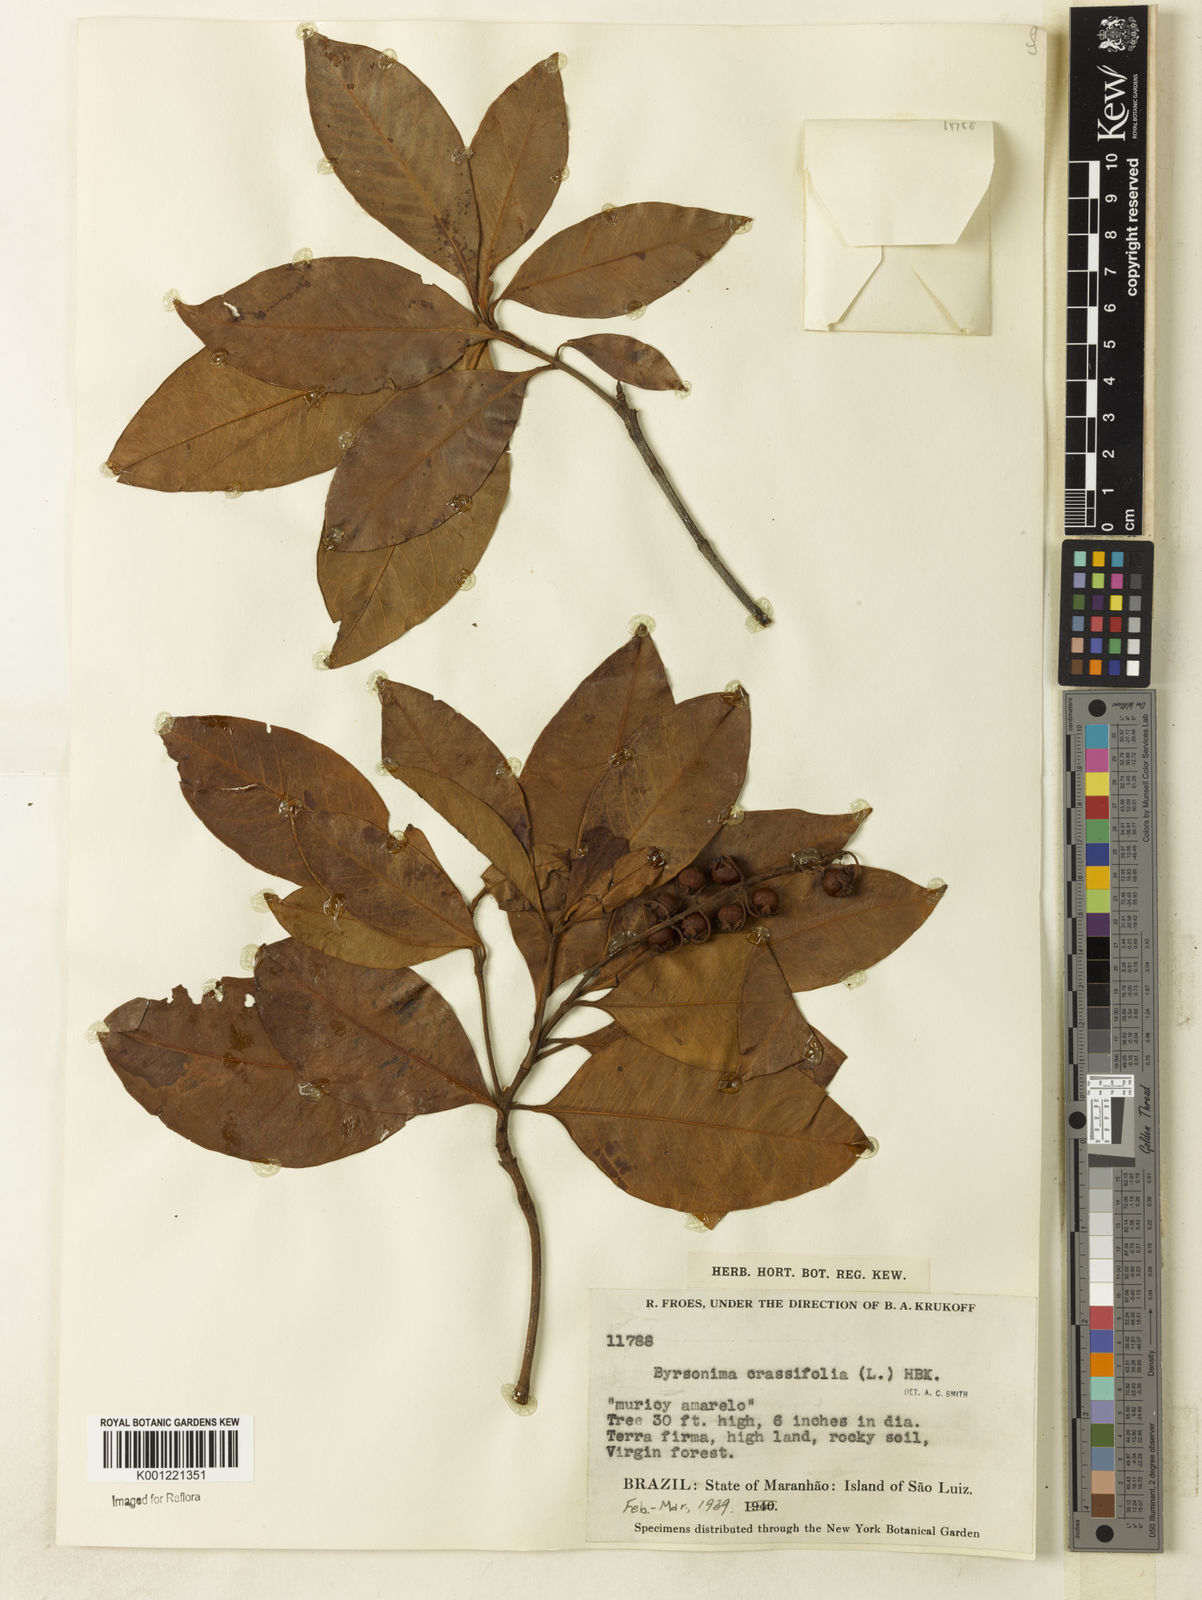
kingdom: Plantae
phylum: Tracheophyta
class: Magnoliopsida
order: Malpighiales
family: Malpighiaceae
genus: Byrsonima
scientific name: Byrsonima crassifolia
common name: Golden spoon
